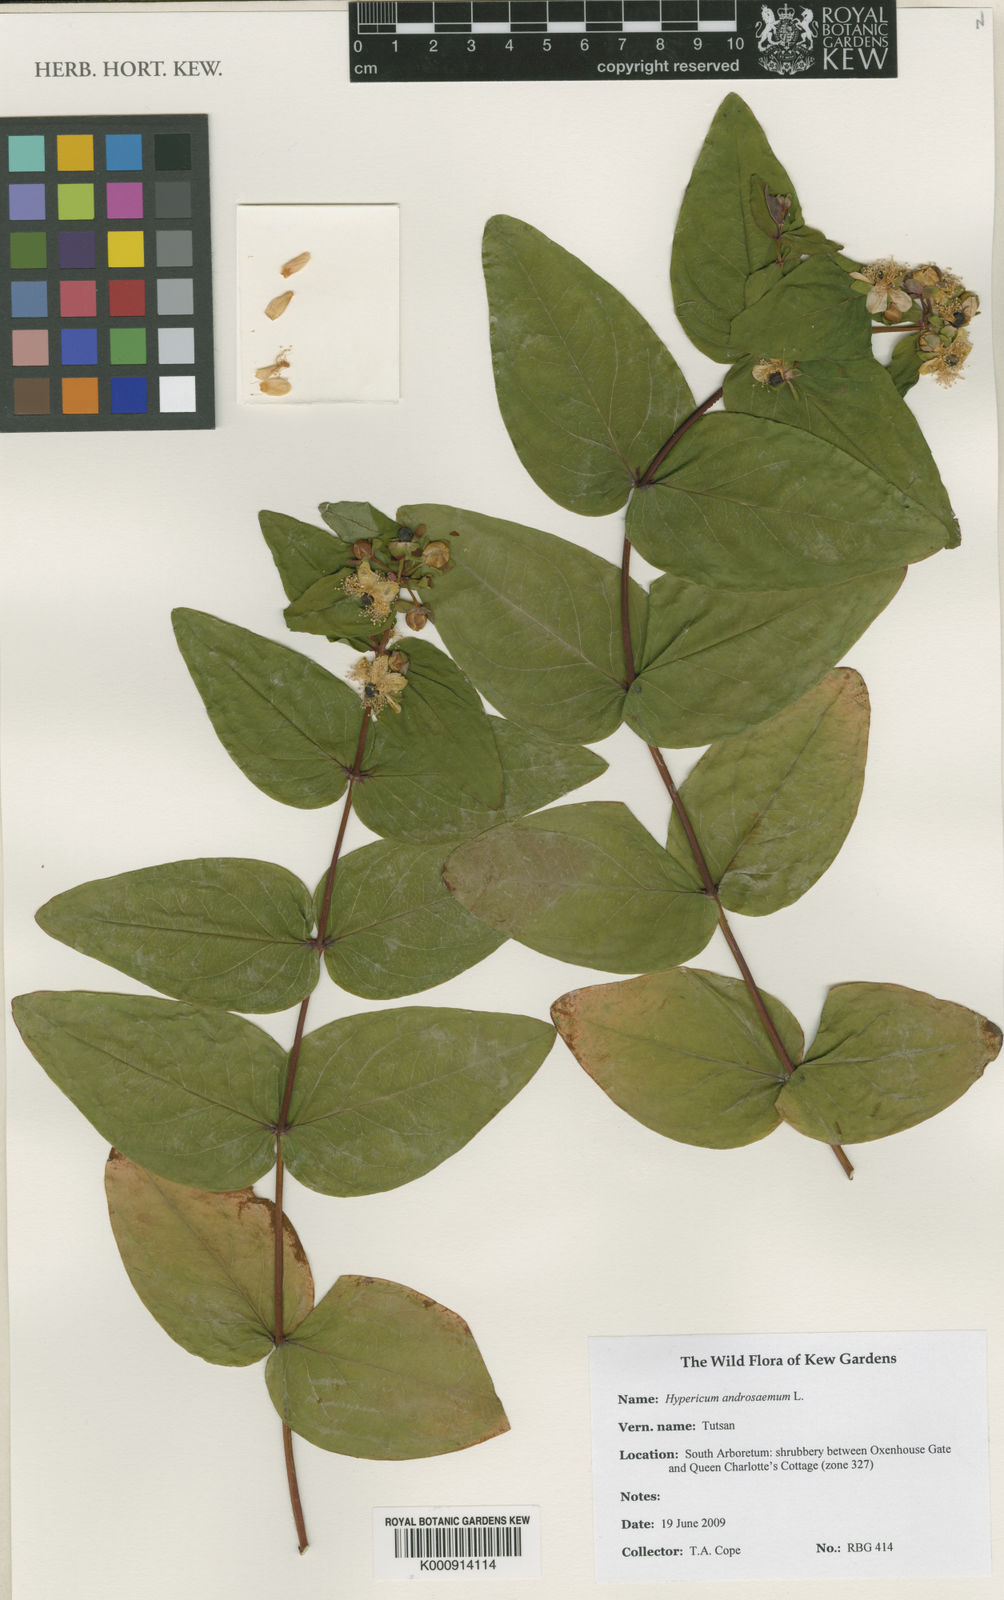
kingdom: Plantae
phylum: Tracheophyta
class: Magnoliopsida
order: Malpighiales
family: Hypericaceae
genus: Hypericum
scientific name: Hypericum androsaemum
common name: Sweet-amber
